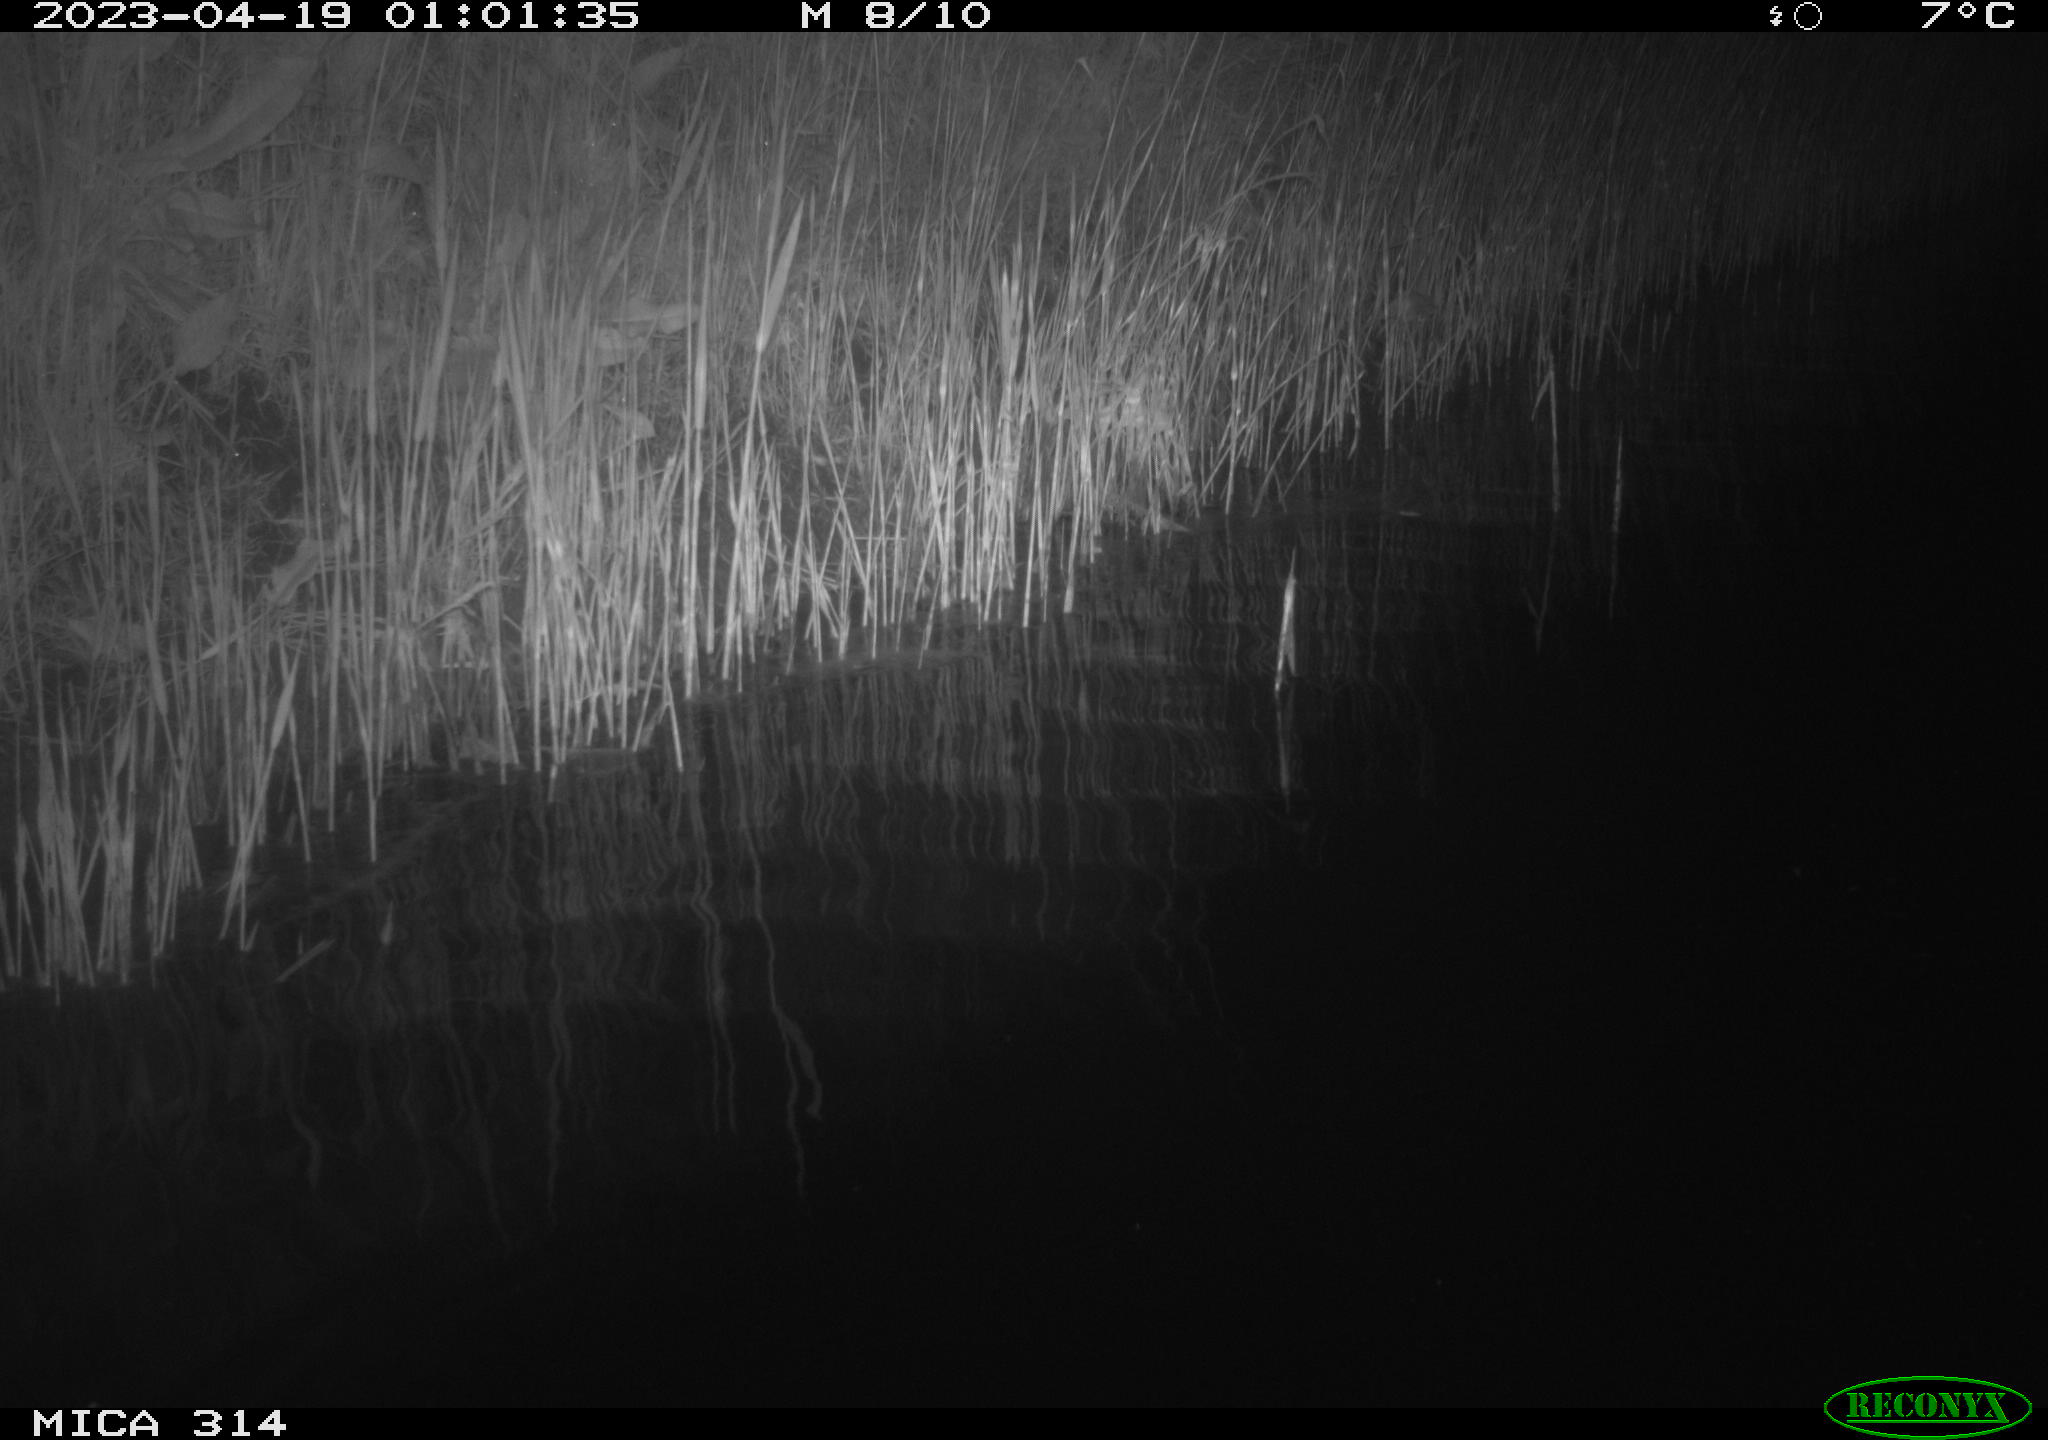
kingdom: Animalia
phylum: Chordata
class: Aves
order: Anseriformes
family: Anatidae
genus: Anas
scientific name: Anas
